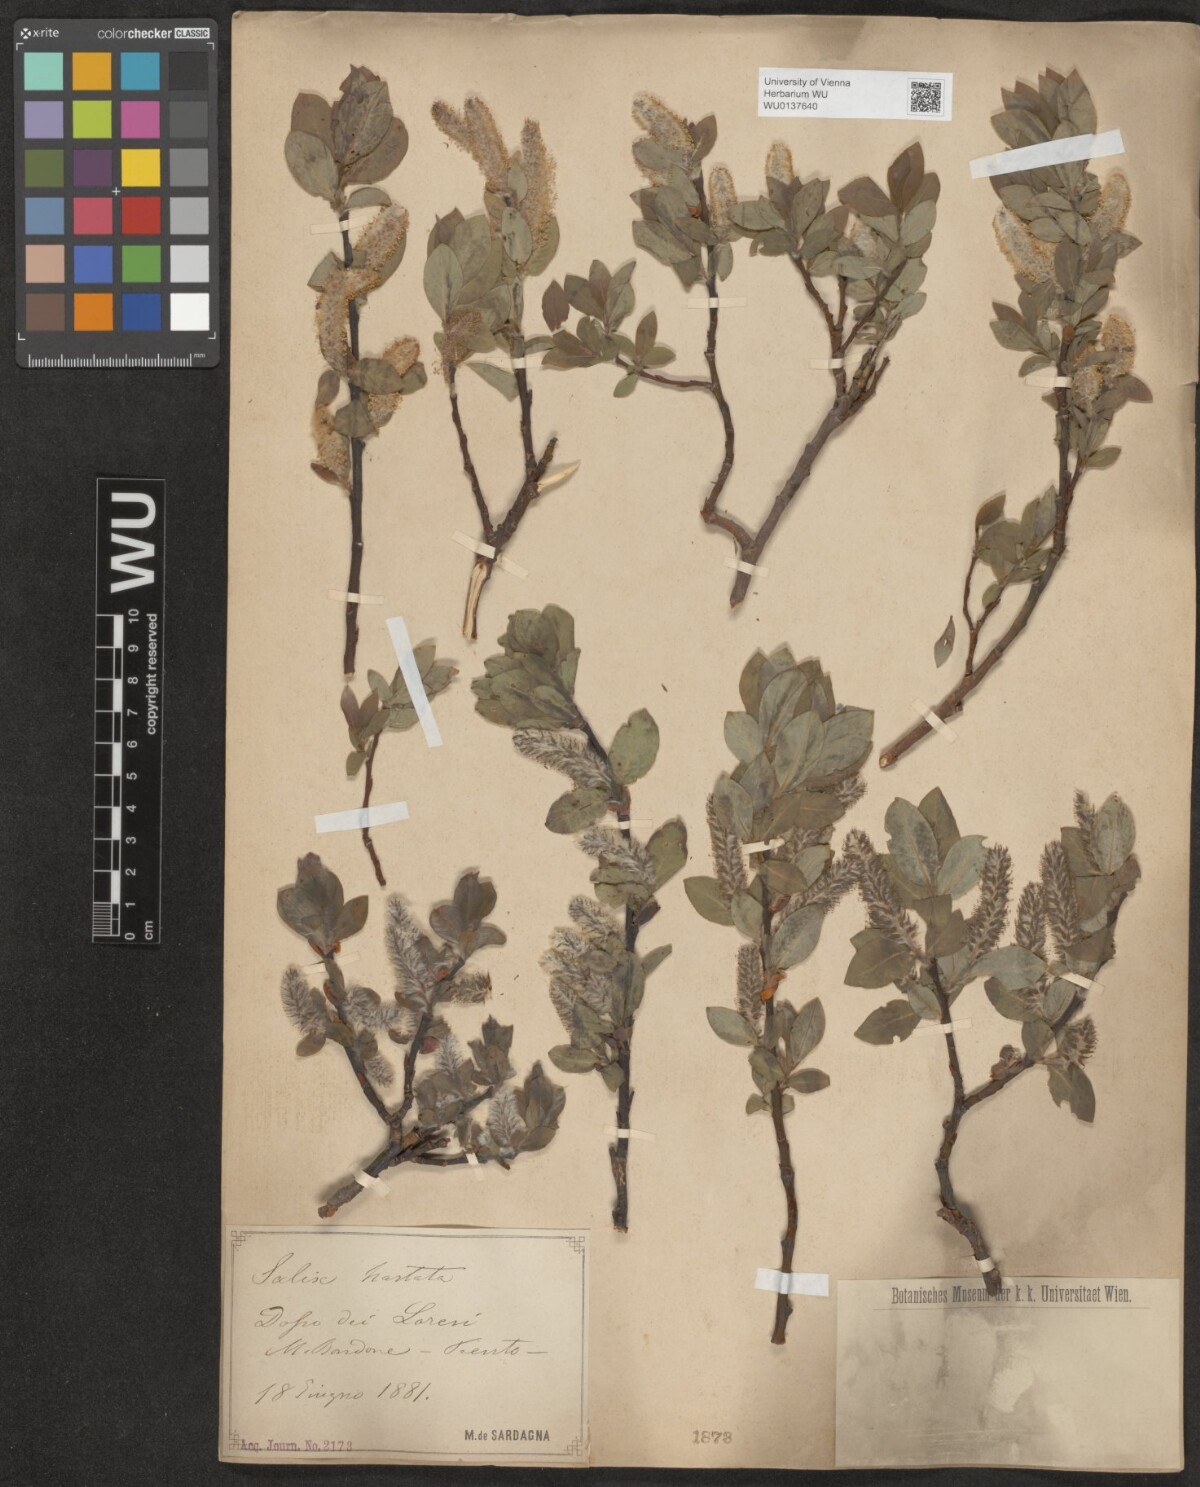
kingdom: Plantae
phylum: Tracheophyta
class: Magnoliopsida
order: Malpighiales
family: Salicaceae
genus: Salix
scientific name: Salix hastata
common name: Halberd willow
